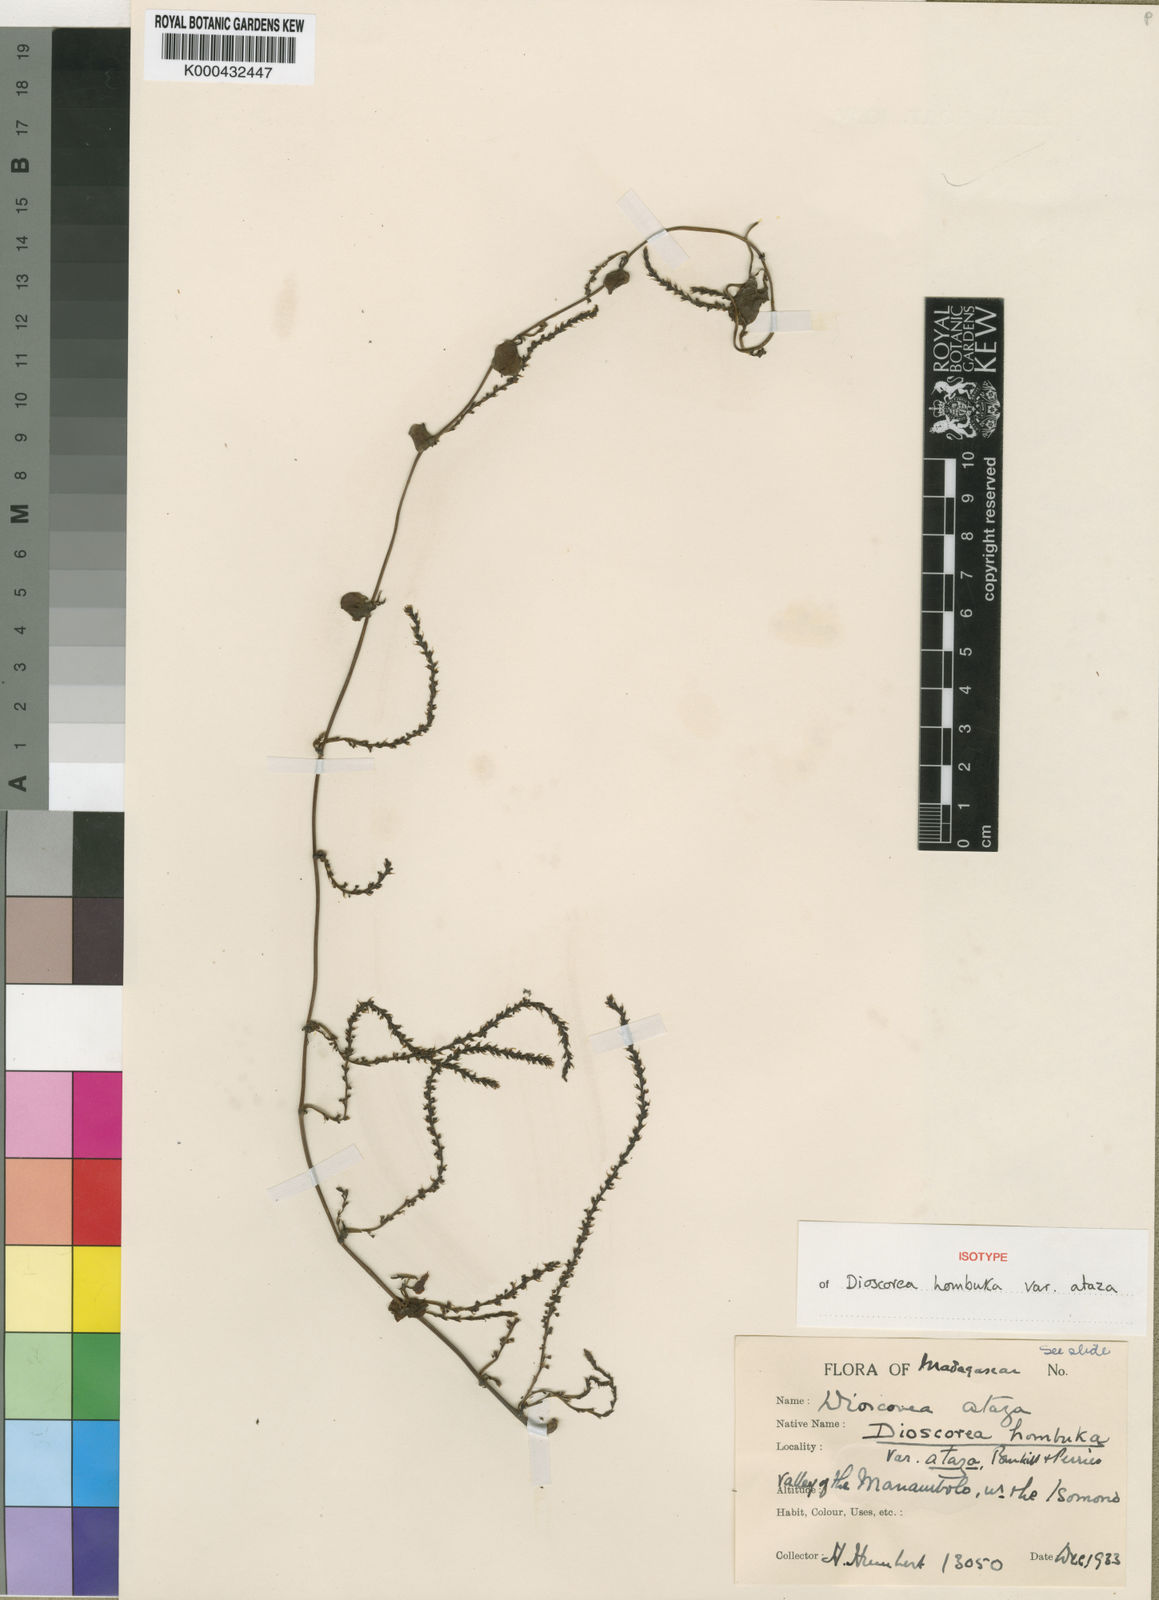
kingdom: Plantae
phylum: Tracheophyta
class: Liliopsida
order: Dioscoreales
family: Dioscoreaceae
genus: Dioscorea
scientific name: Dioscorea hombuka
